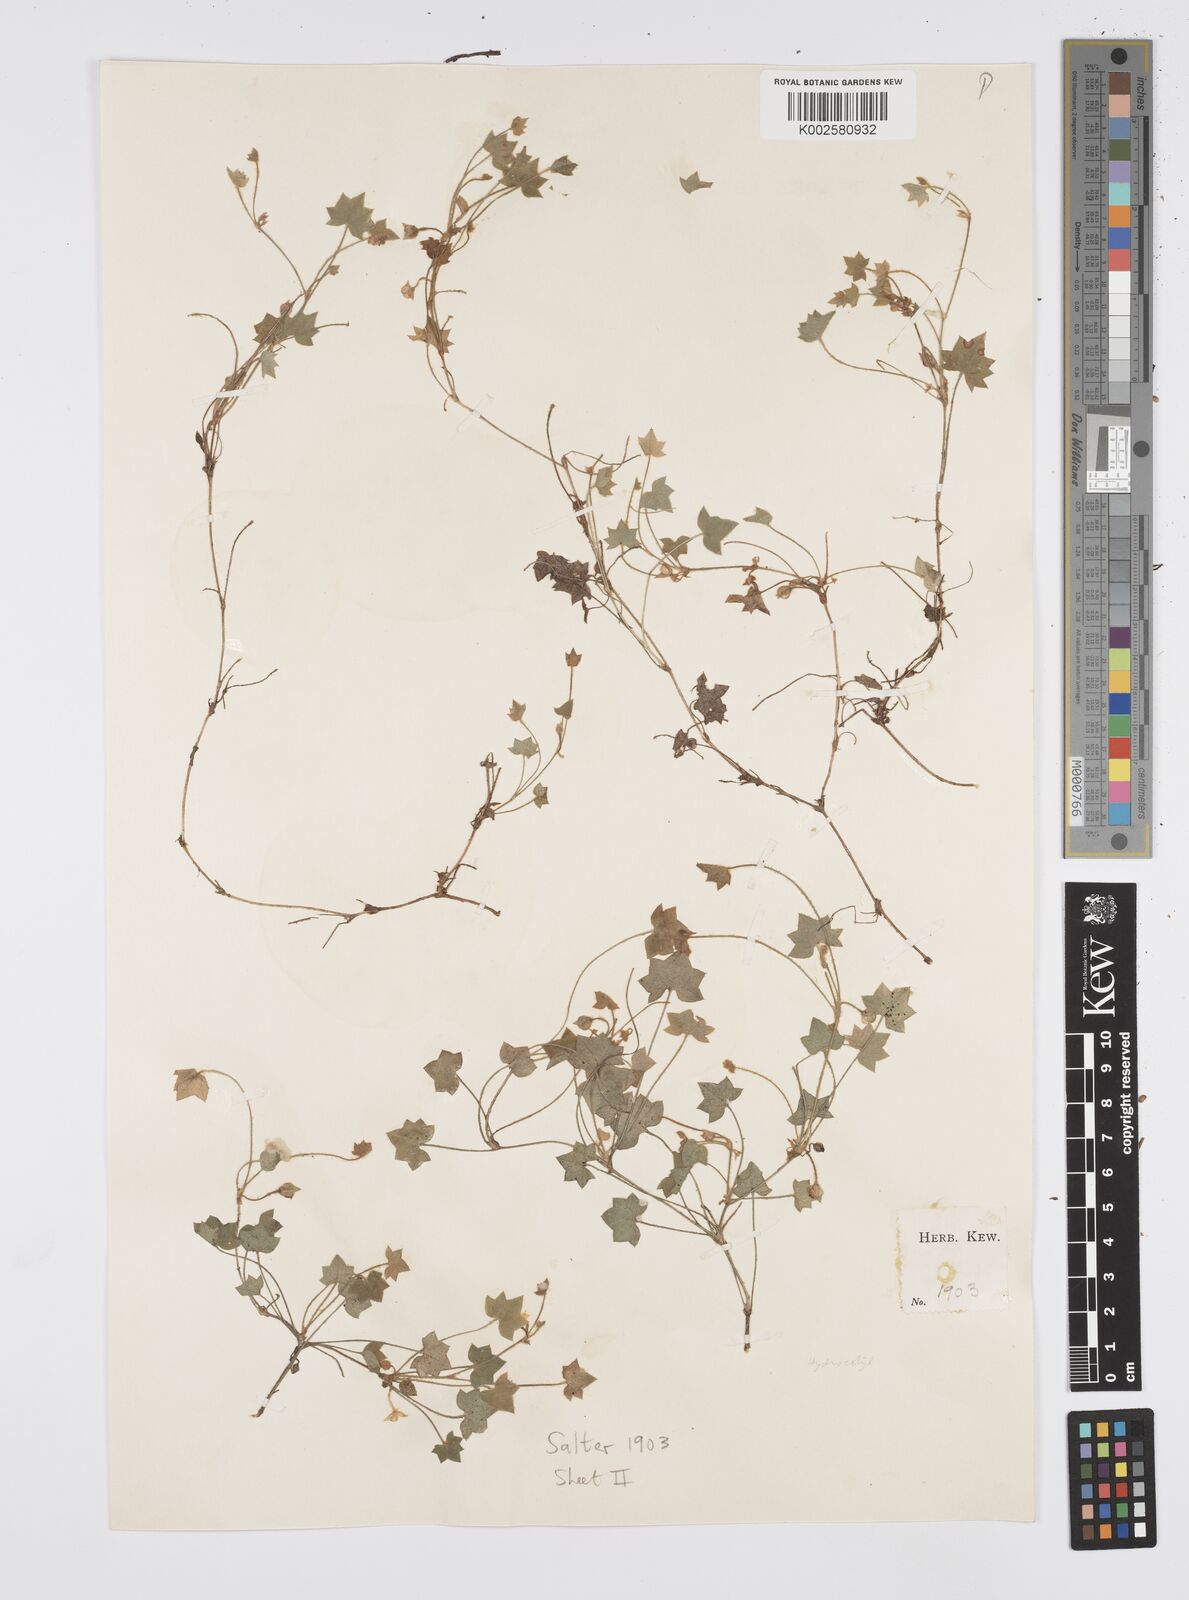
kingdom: Plantae
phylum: Tracheophyta
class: Magnoliopsida
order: Apiales
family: Apiaceae
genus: Centella
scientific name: Centella macroda
